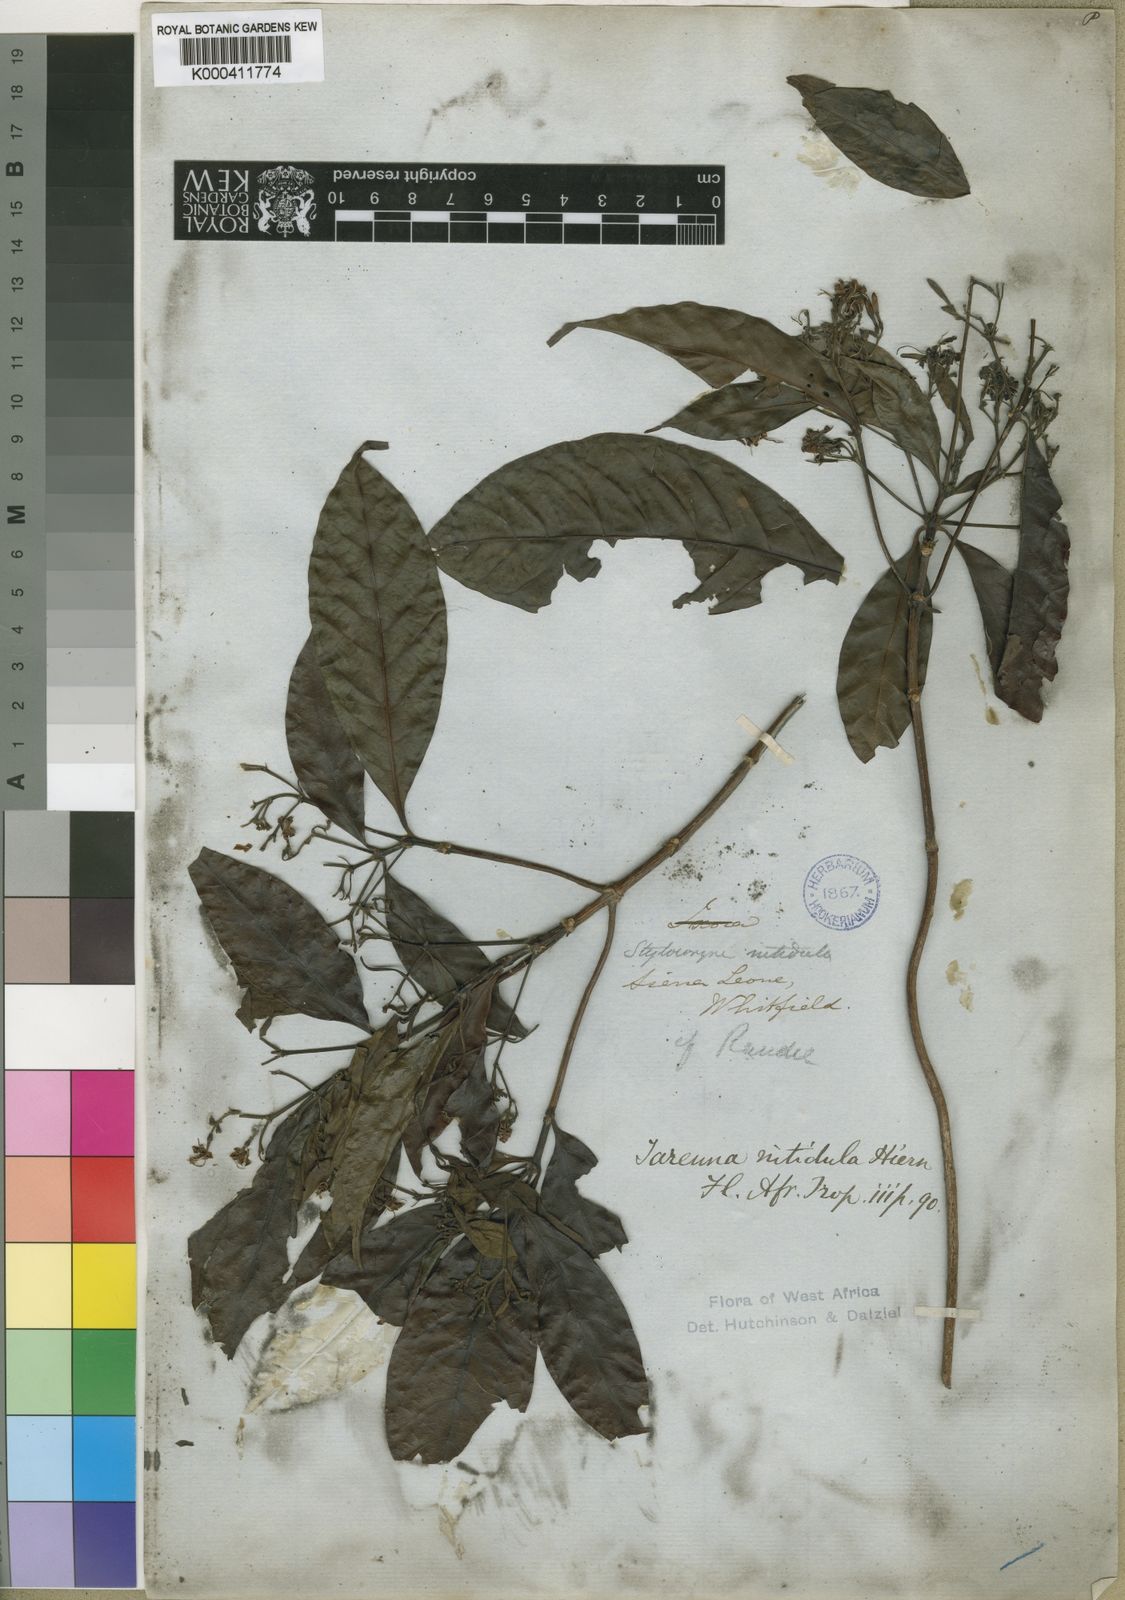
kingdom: Plantae
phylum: Tracheophyta
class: Magnoliopsida
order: Gentianales
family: Rubiaceae
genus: Tarenna
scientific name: Tarenna nitidula
